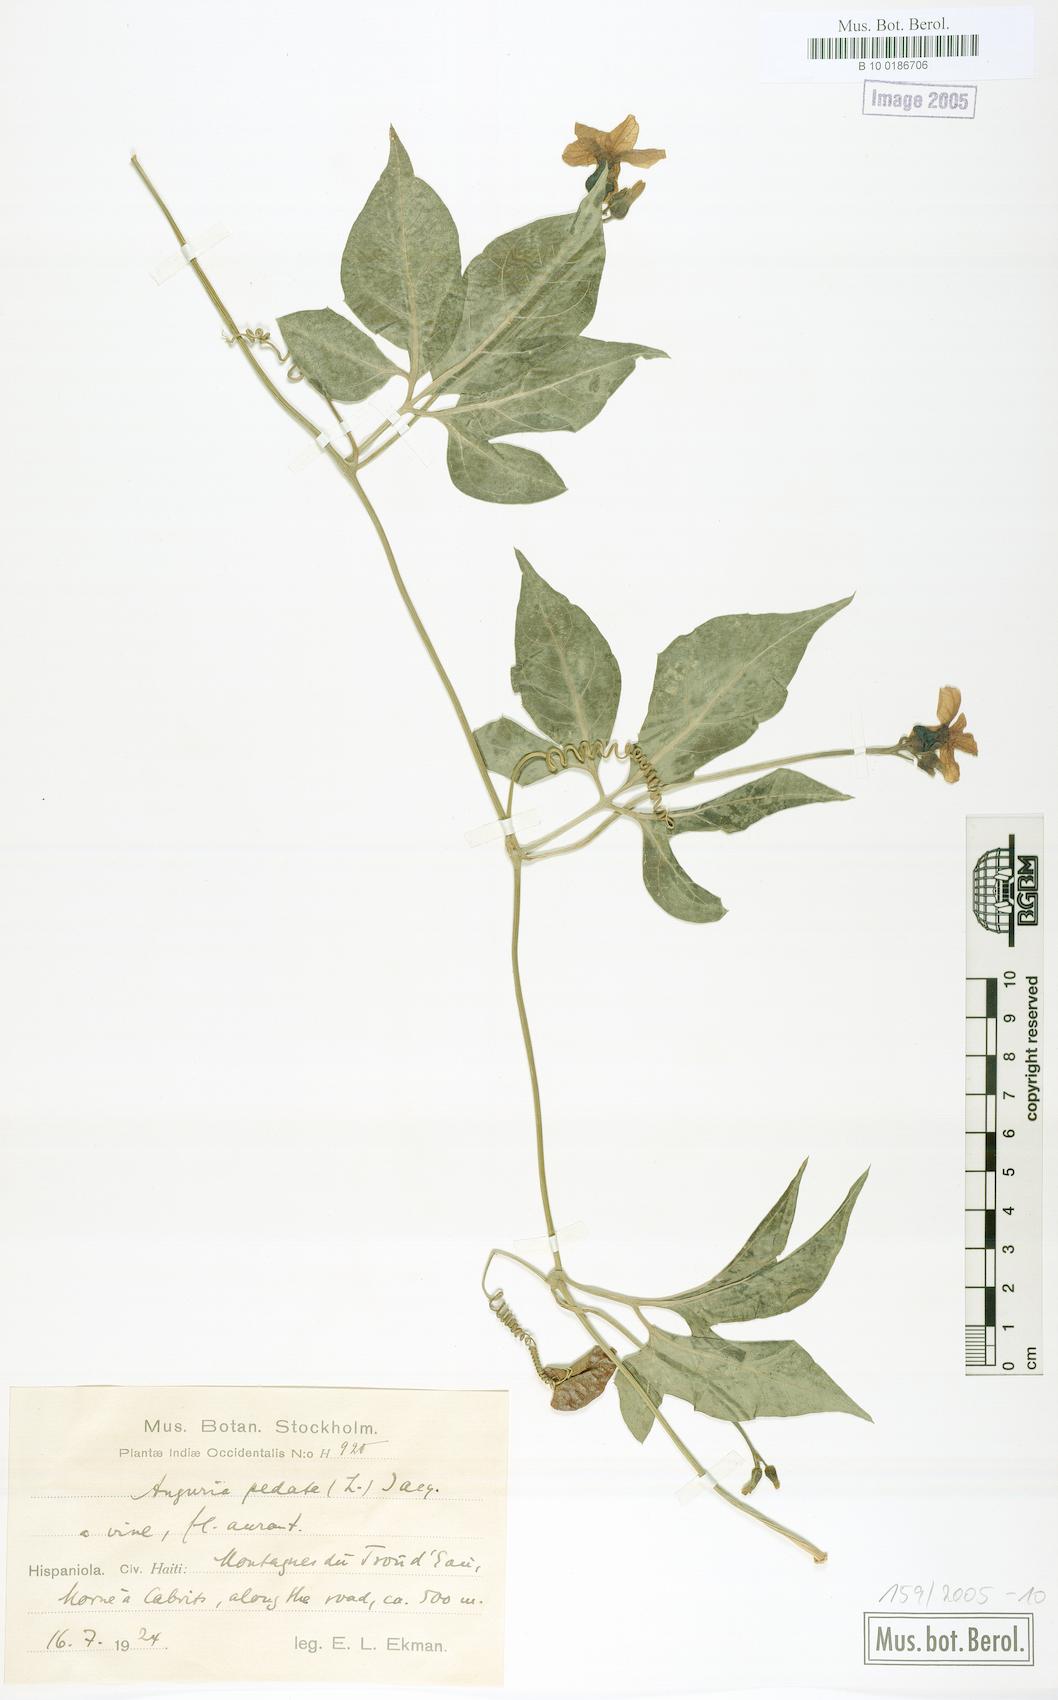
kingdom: Plantae
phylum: Tracheophyta
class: Magnoliopsida
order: Cucurbitales
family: Cucurbitaceae
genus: Gurania
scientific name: Gurania pedata
